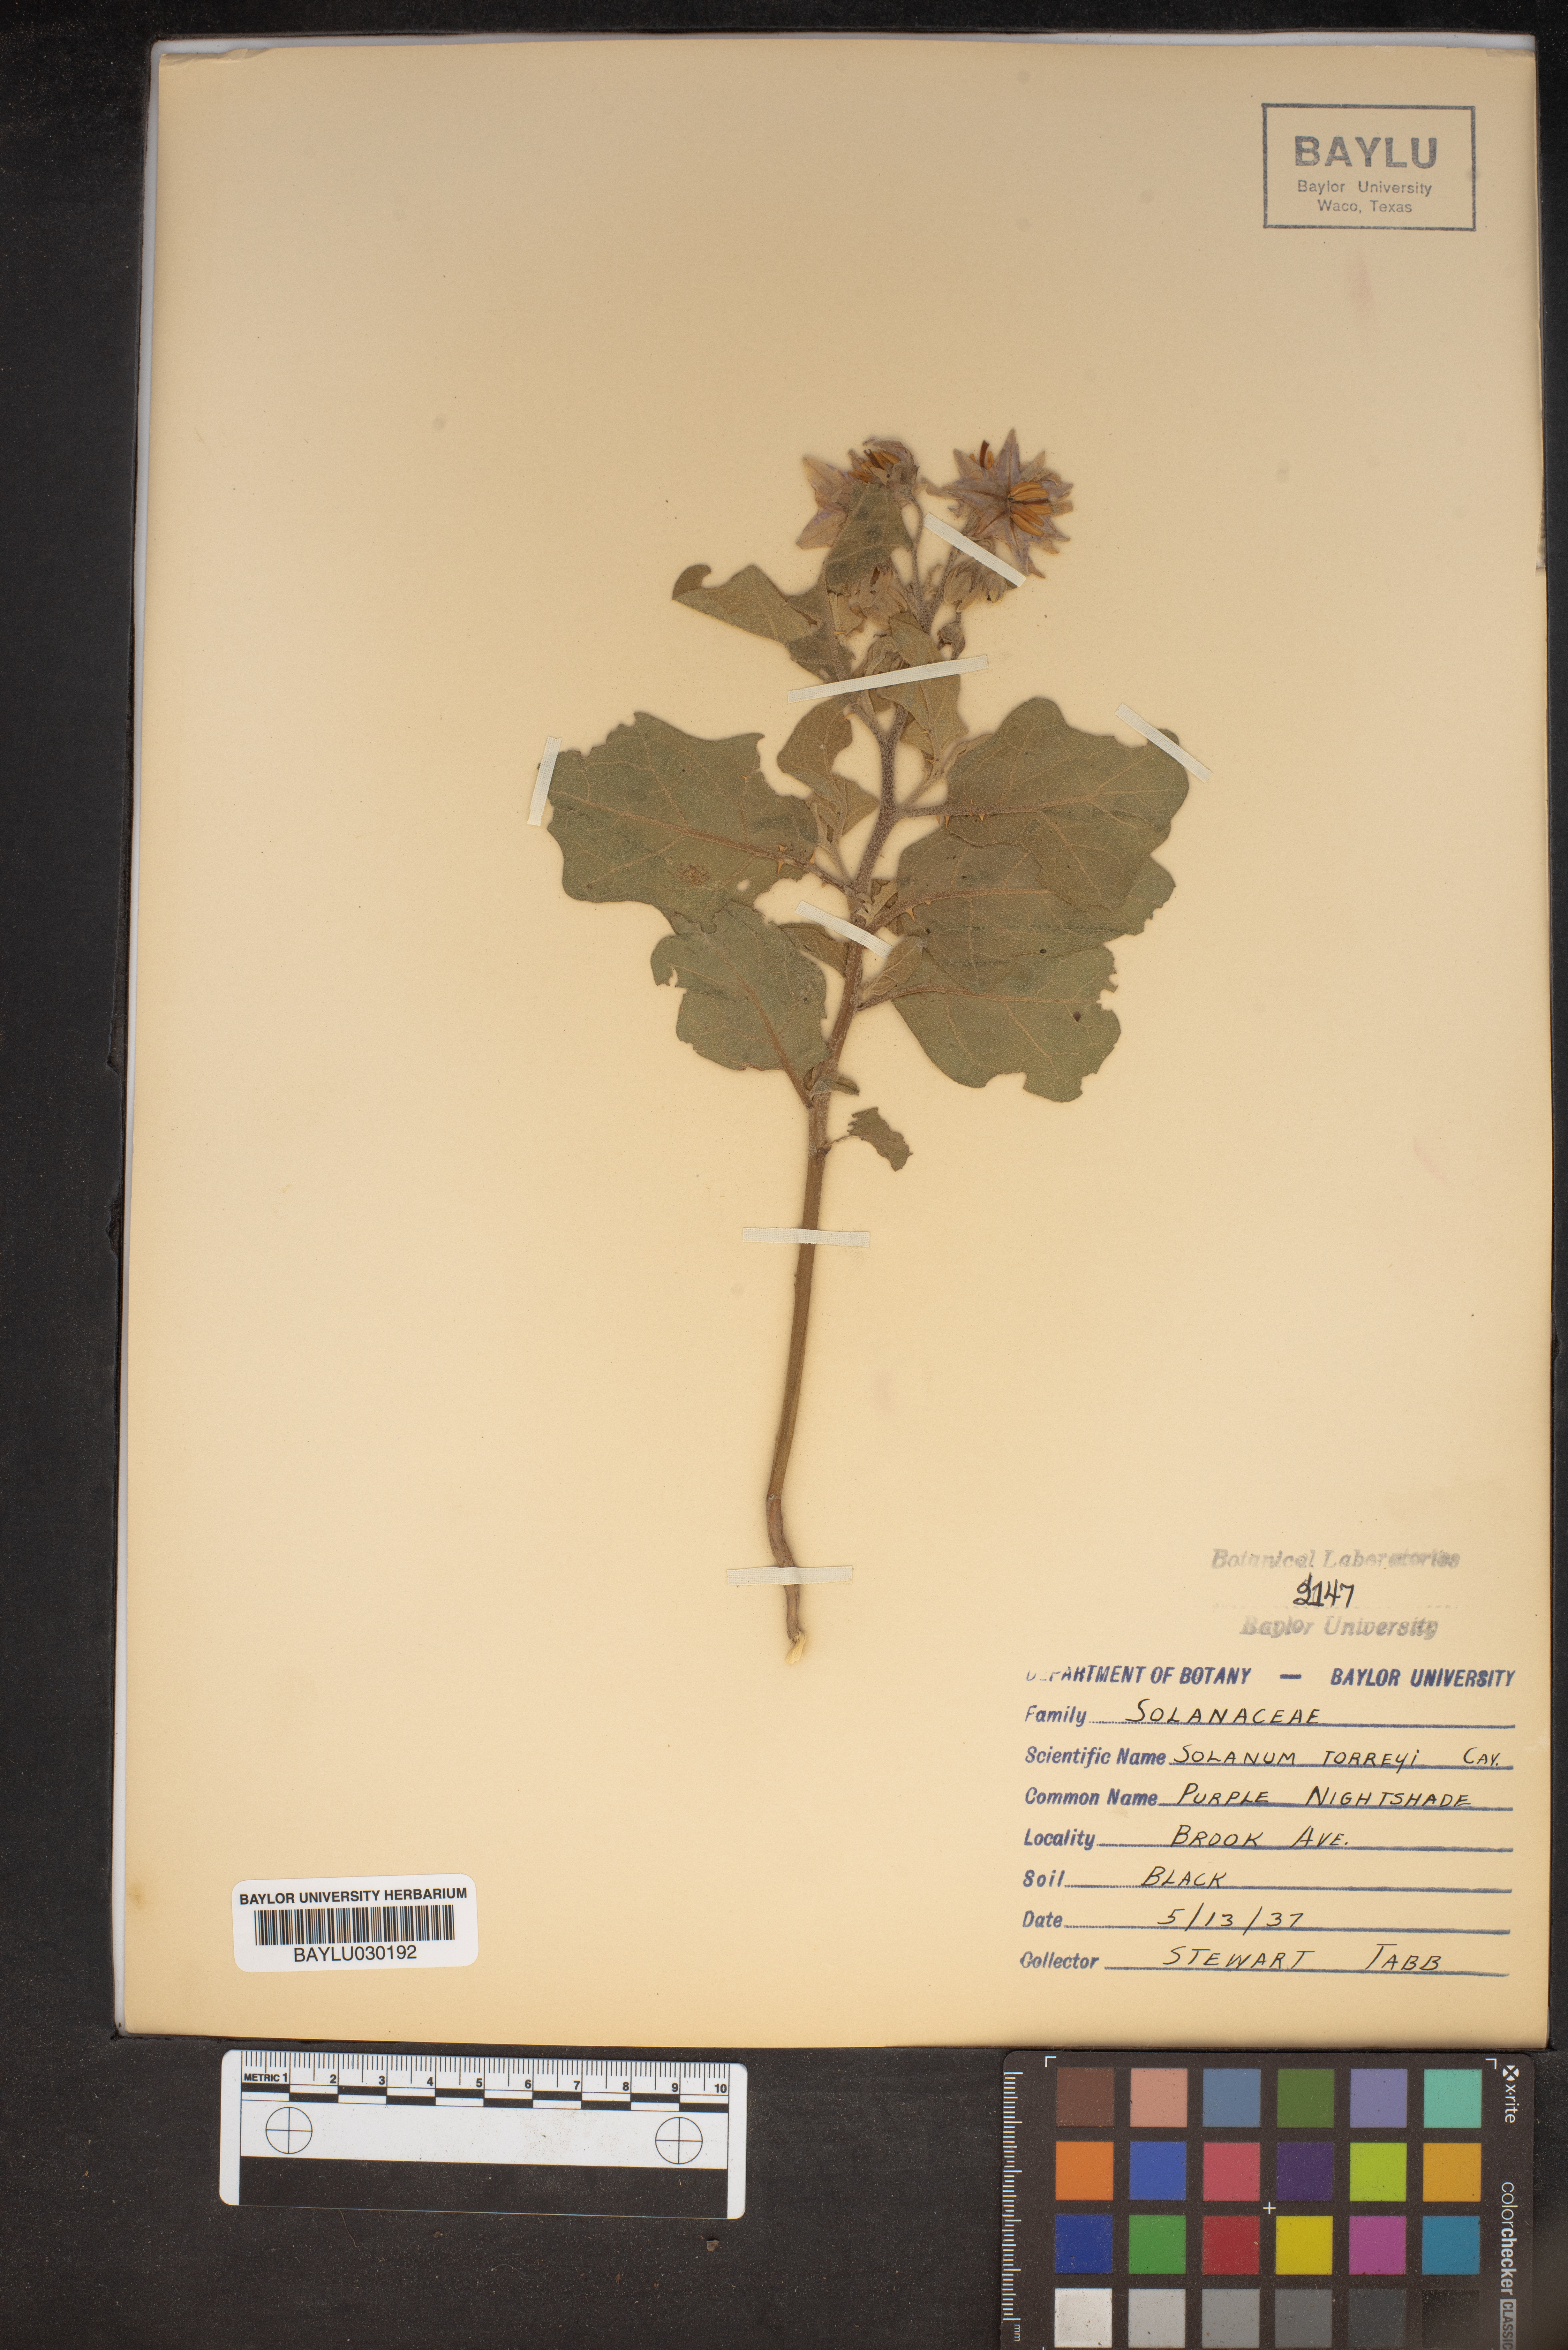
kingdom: Plantae
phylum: Tracheophyta
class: Magnoliopsida
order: Solanales
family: Solanaceae
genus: Solanum
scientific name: Solanum dimidiatum
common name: Carolina horse-nettle
